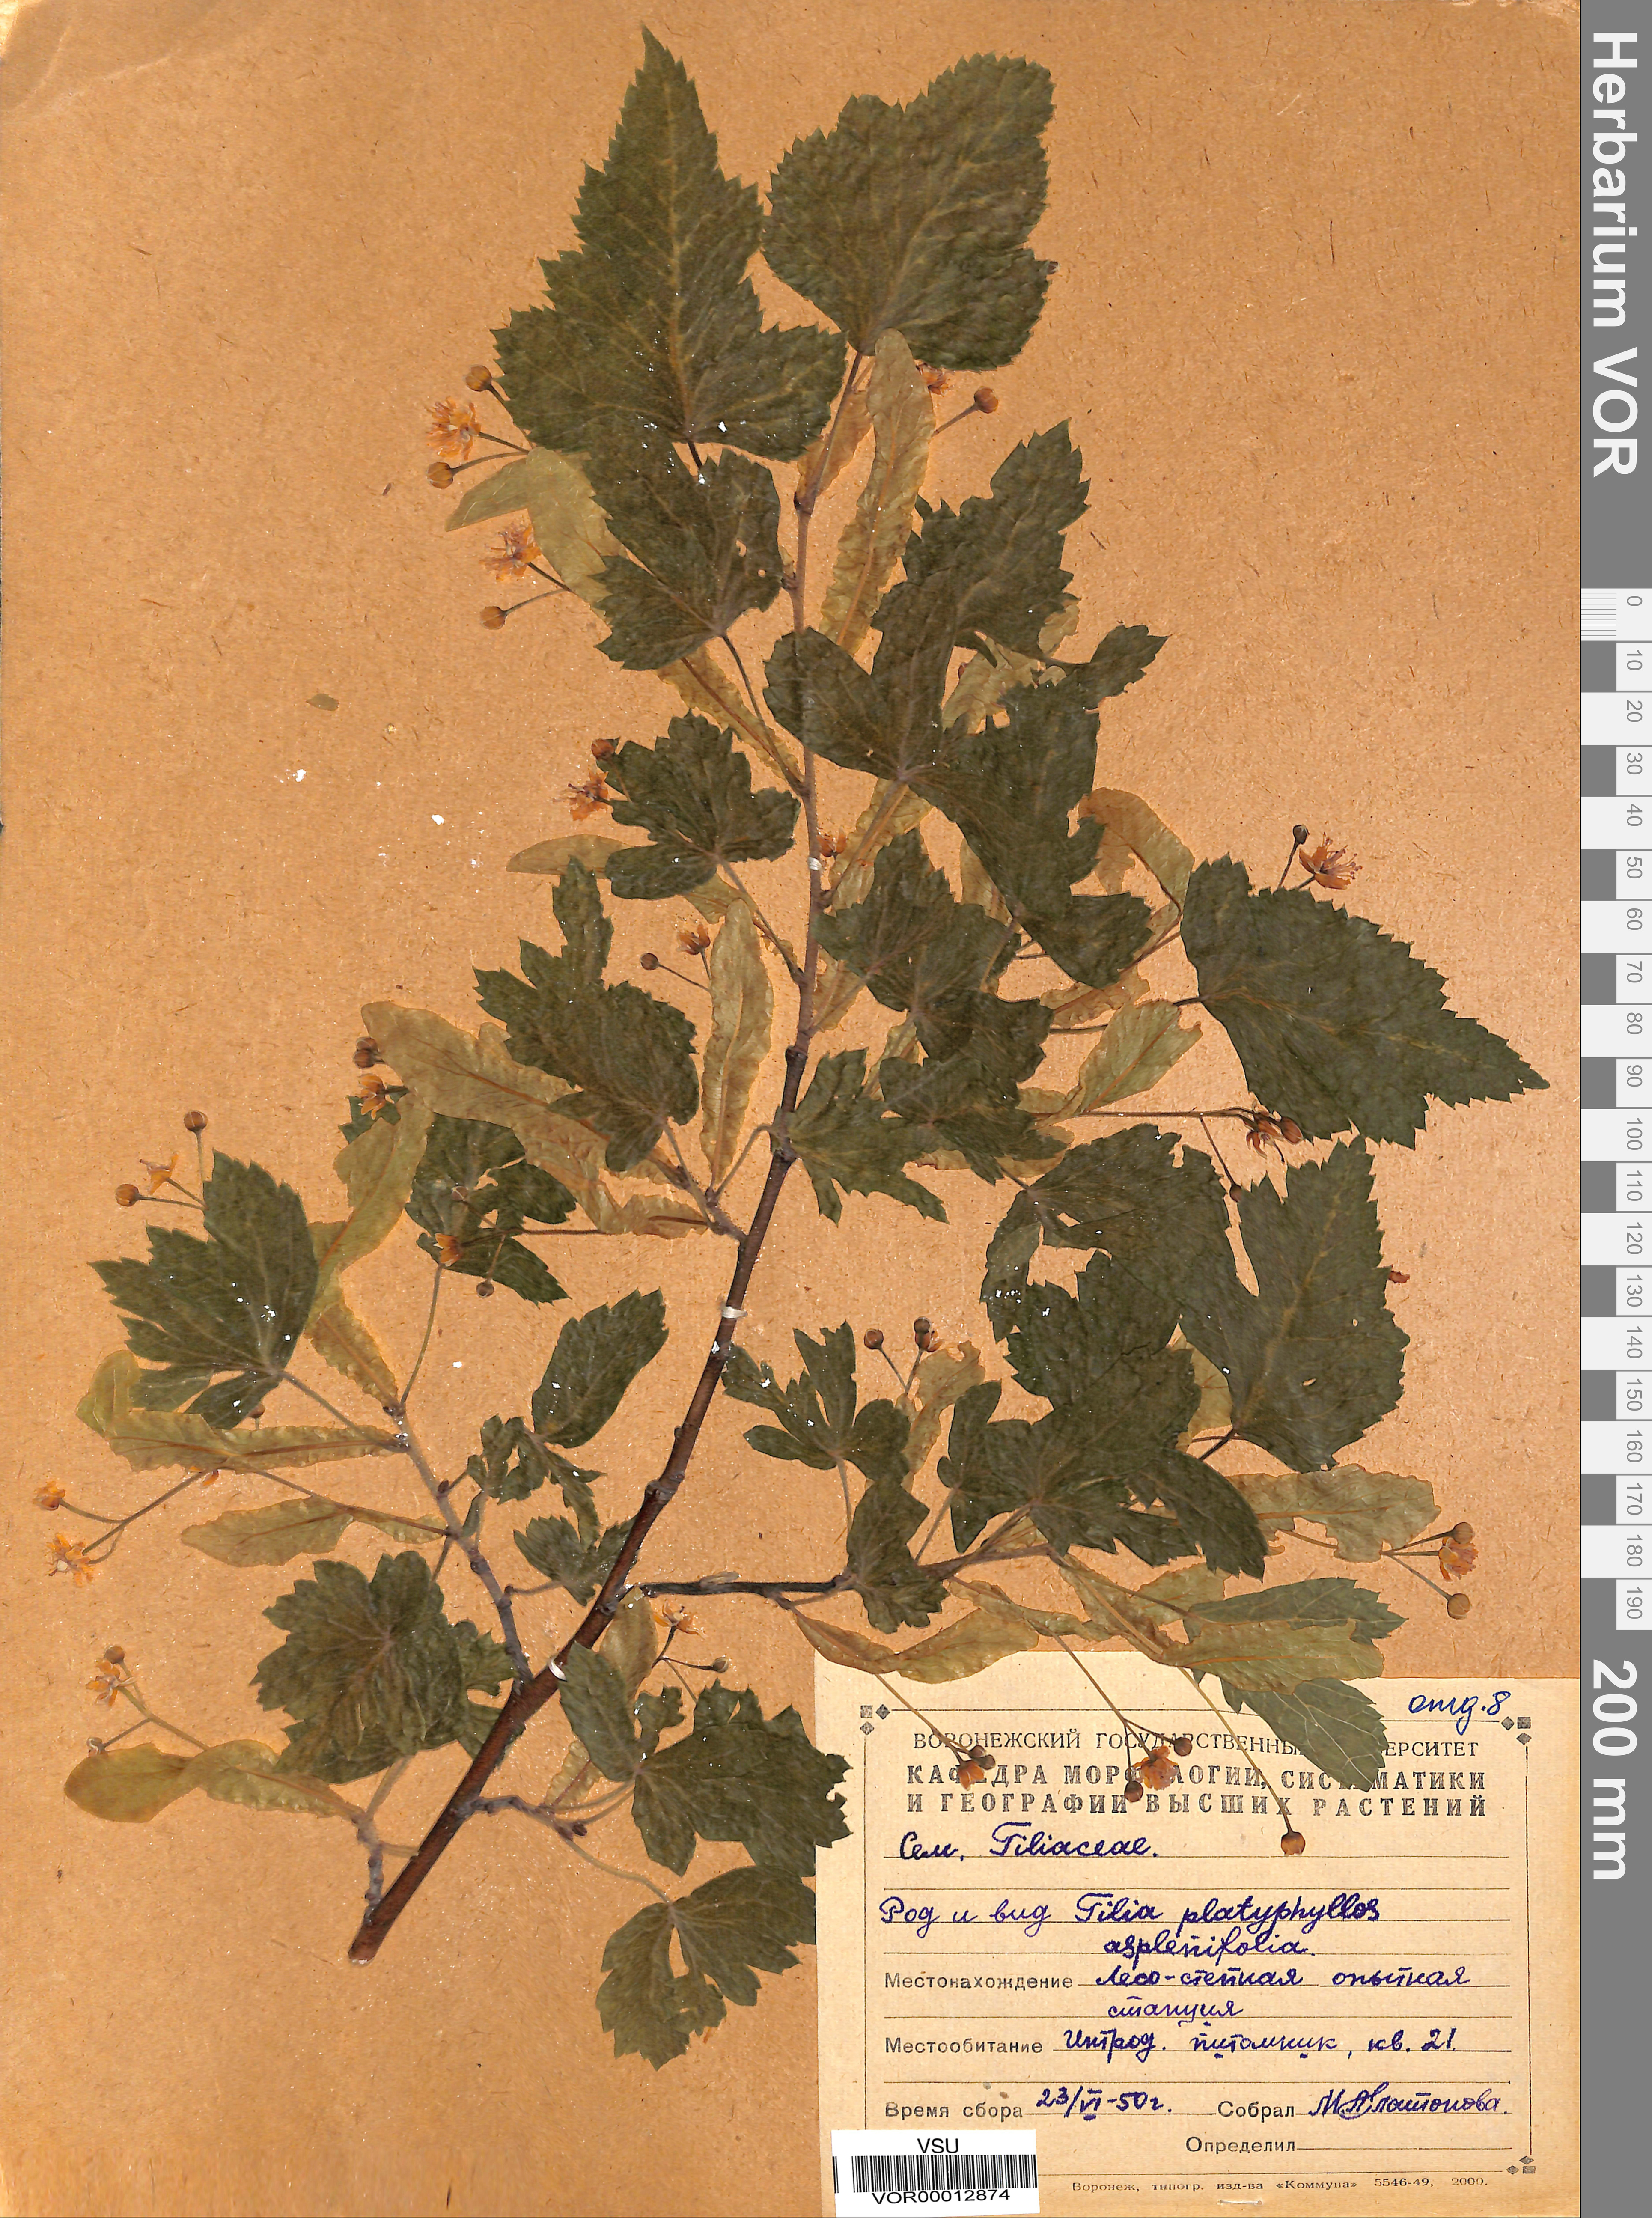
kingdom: Plantae
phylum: Tracheophyta
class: Magnoliopsida
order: Malvales
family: Malvaceae
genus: Tilia
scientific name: Tilia platyphyllos
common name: Large-leaved lime
